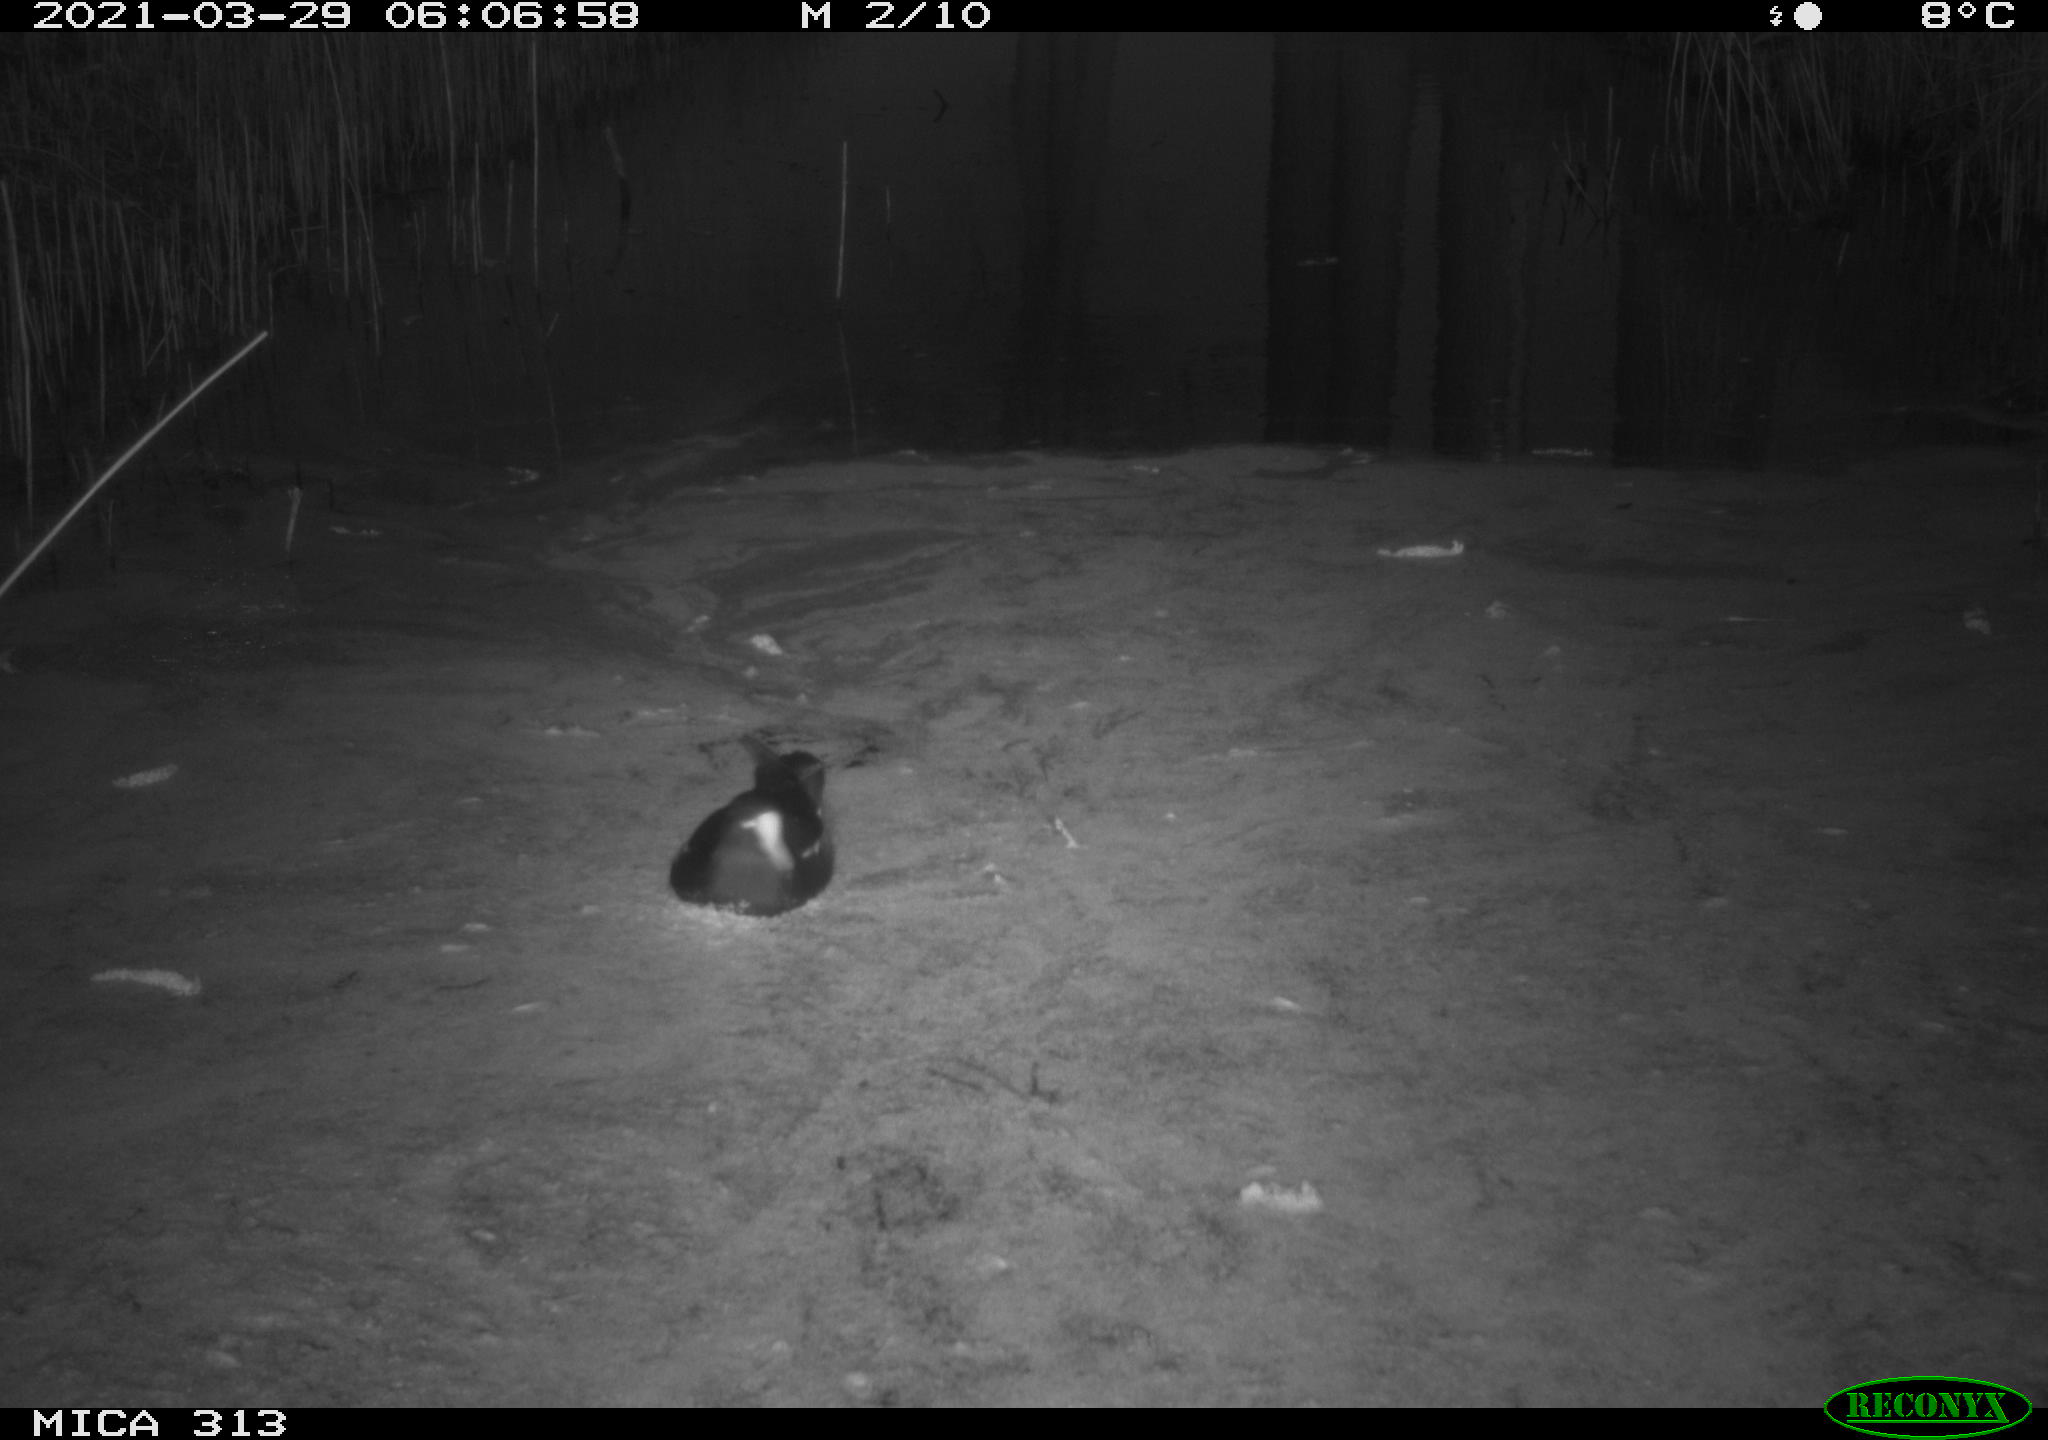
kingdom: Animalia
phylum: Chordata
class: Aves
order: Gruiformes
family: Rallidae
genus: Gallinula
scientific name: Gallinula chloropus
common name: Common moorhen
